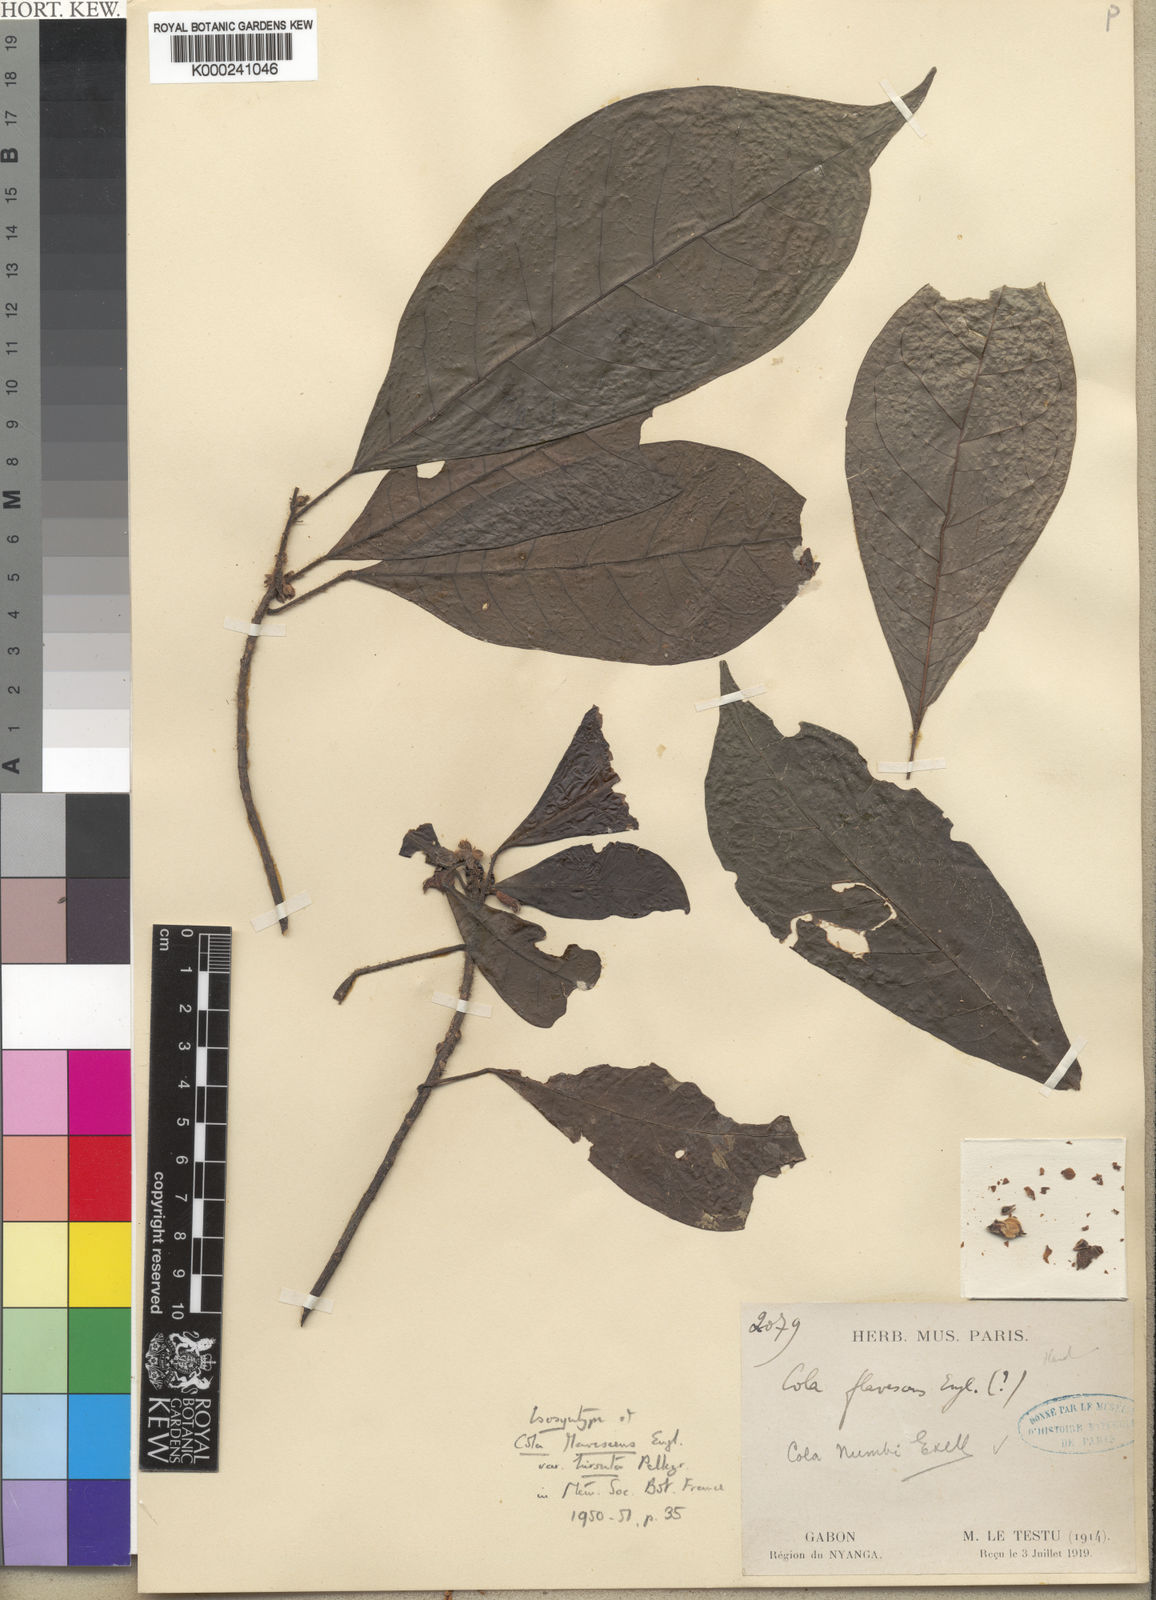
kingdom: Plantae
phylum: Tracheophyta
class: Magnoliopsida
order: Malvales
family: Malvaceae
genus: Cola
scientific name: Cola brevipes
